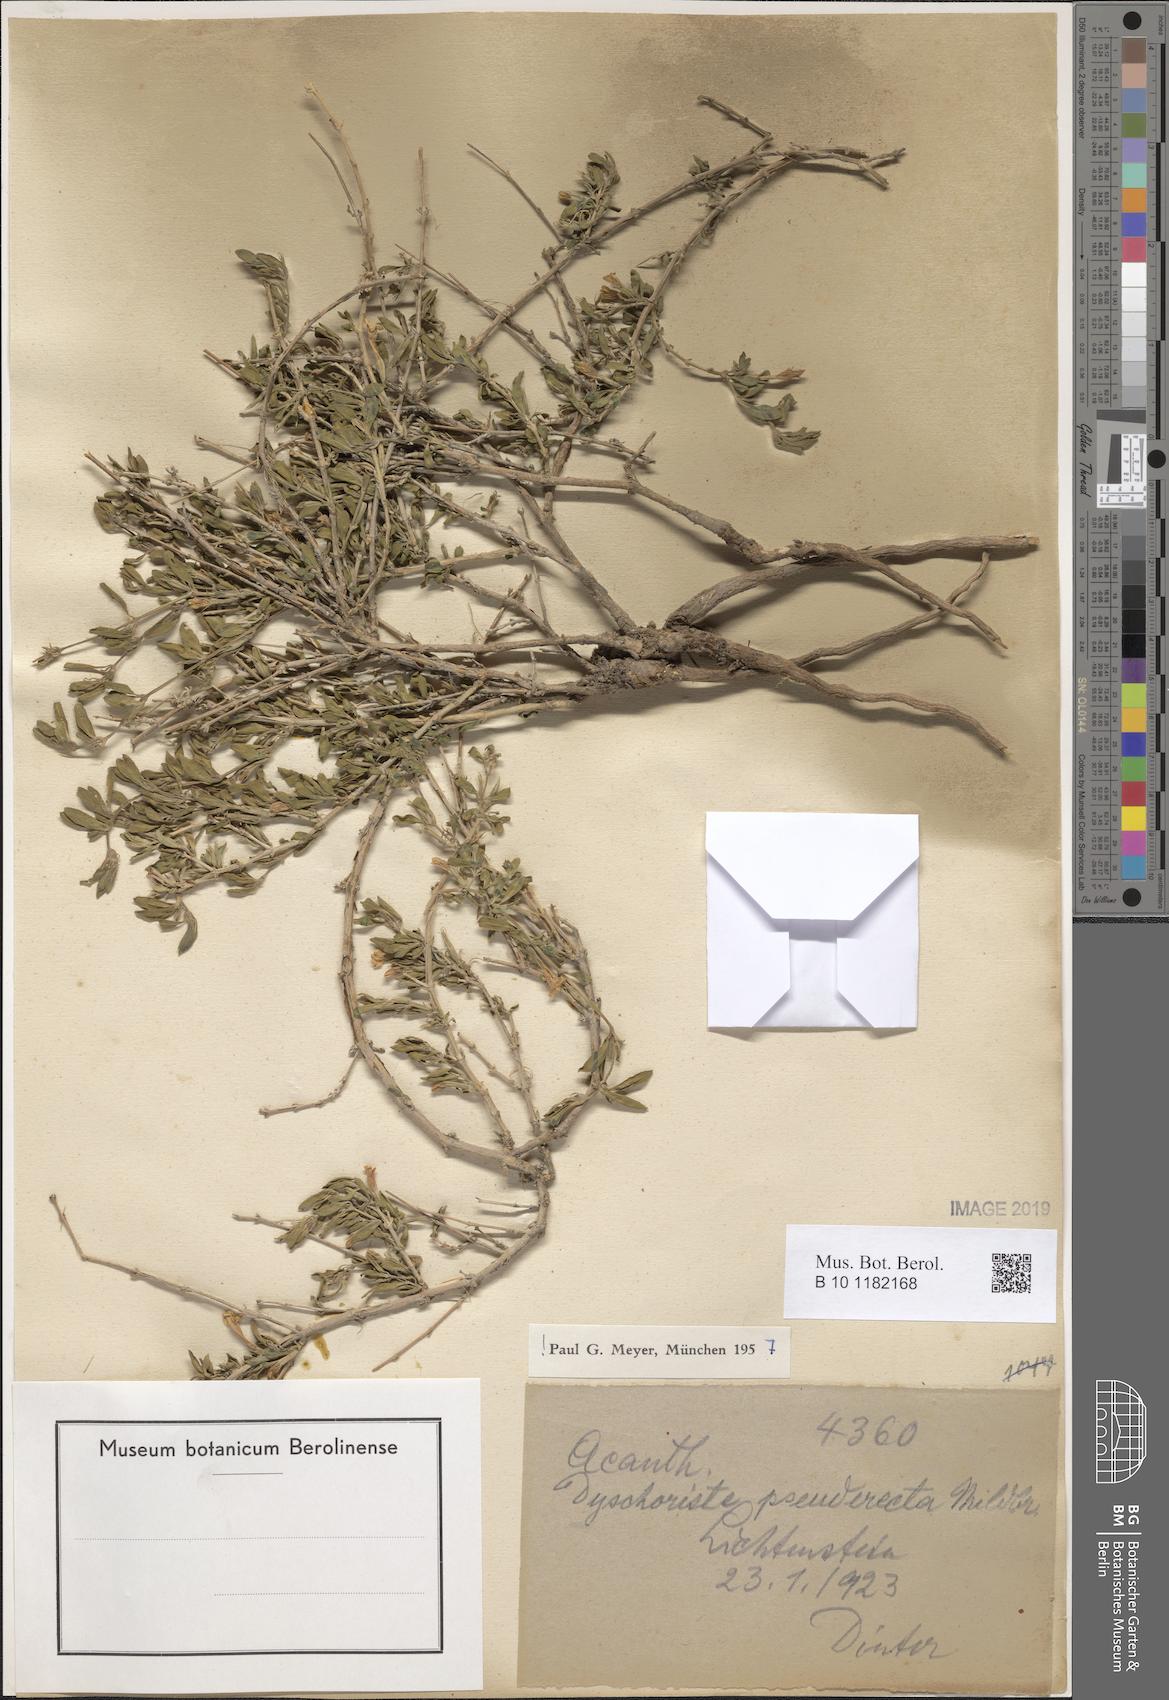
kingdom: Plantae
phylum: Tracheophyta
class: Magnoliopsida
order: Lamiales
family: Acanthaceae
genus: Dyschoriste
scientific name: Dyschoriste pseuderecta
